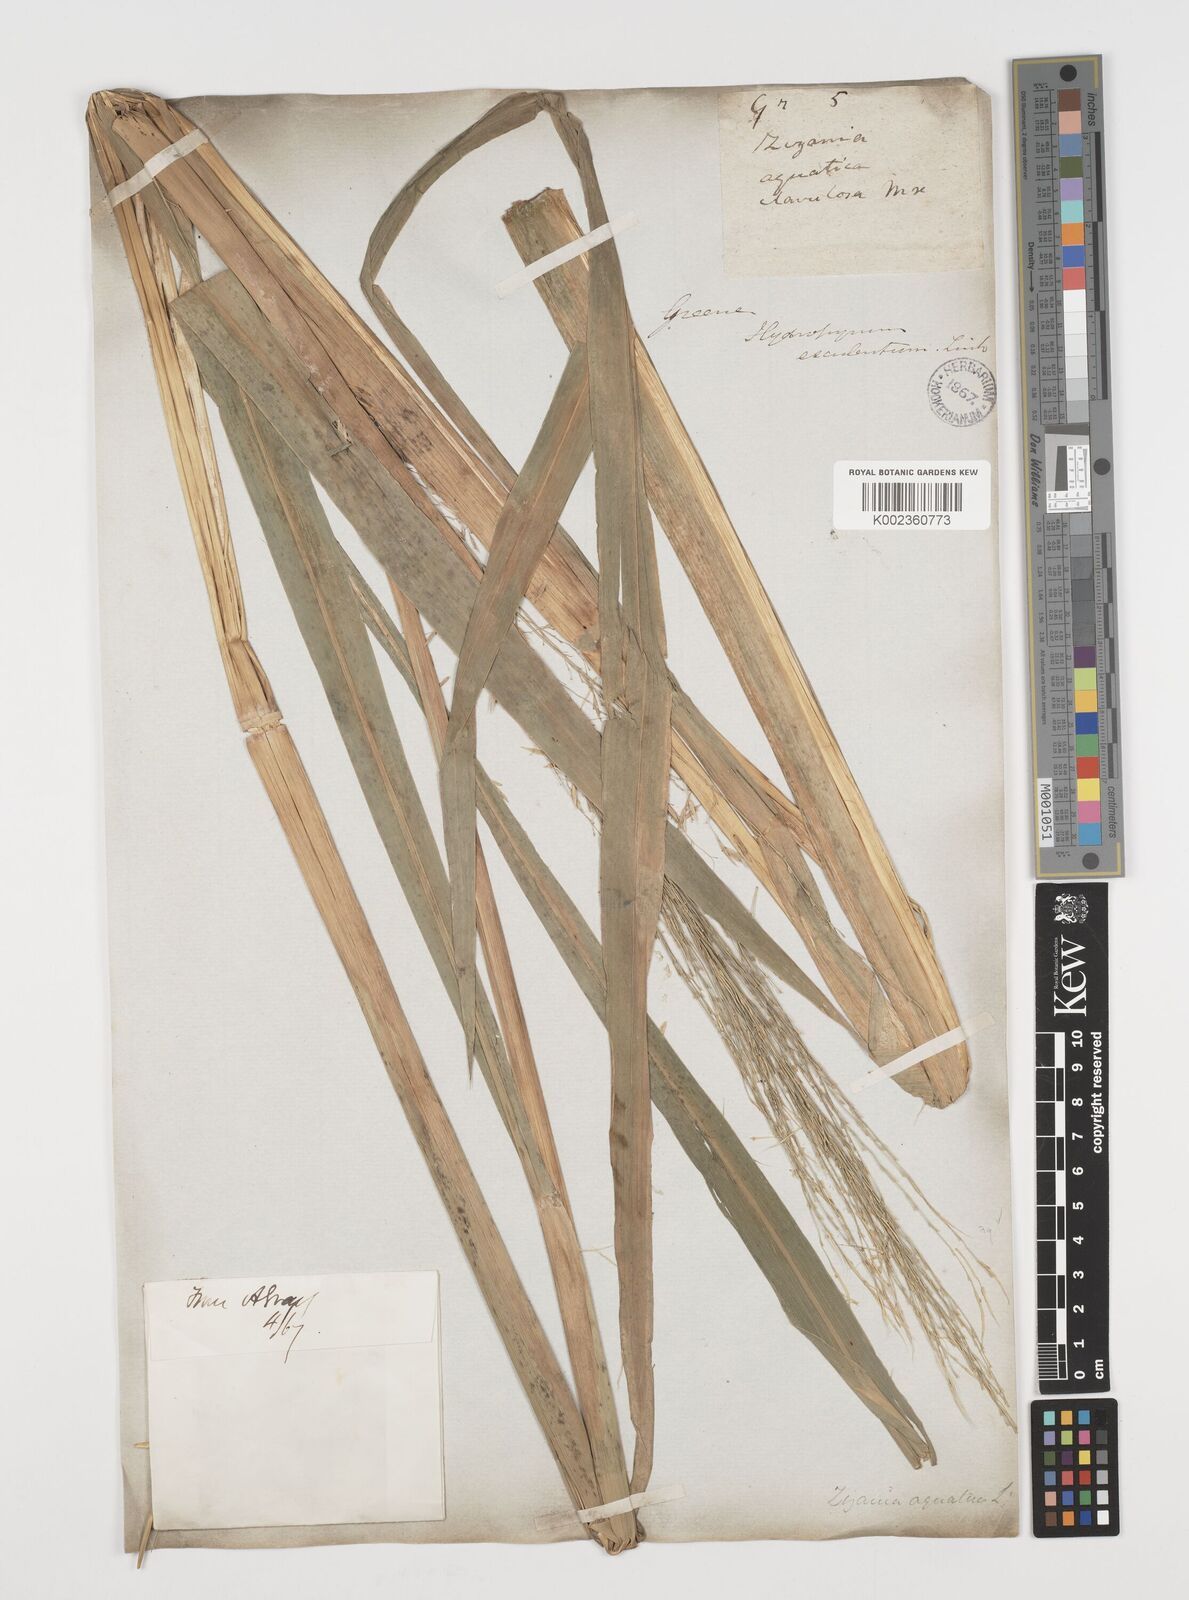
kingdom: Plantae
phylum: Tracheophyta
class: Liliopsida
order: Poales
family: Poaceae
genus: Zizania
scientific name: Zizania aquatica
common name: Annual wildrice
